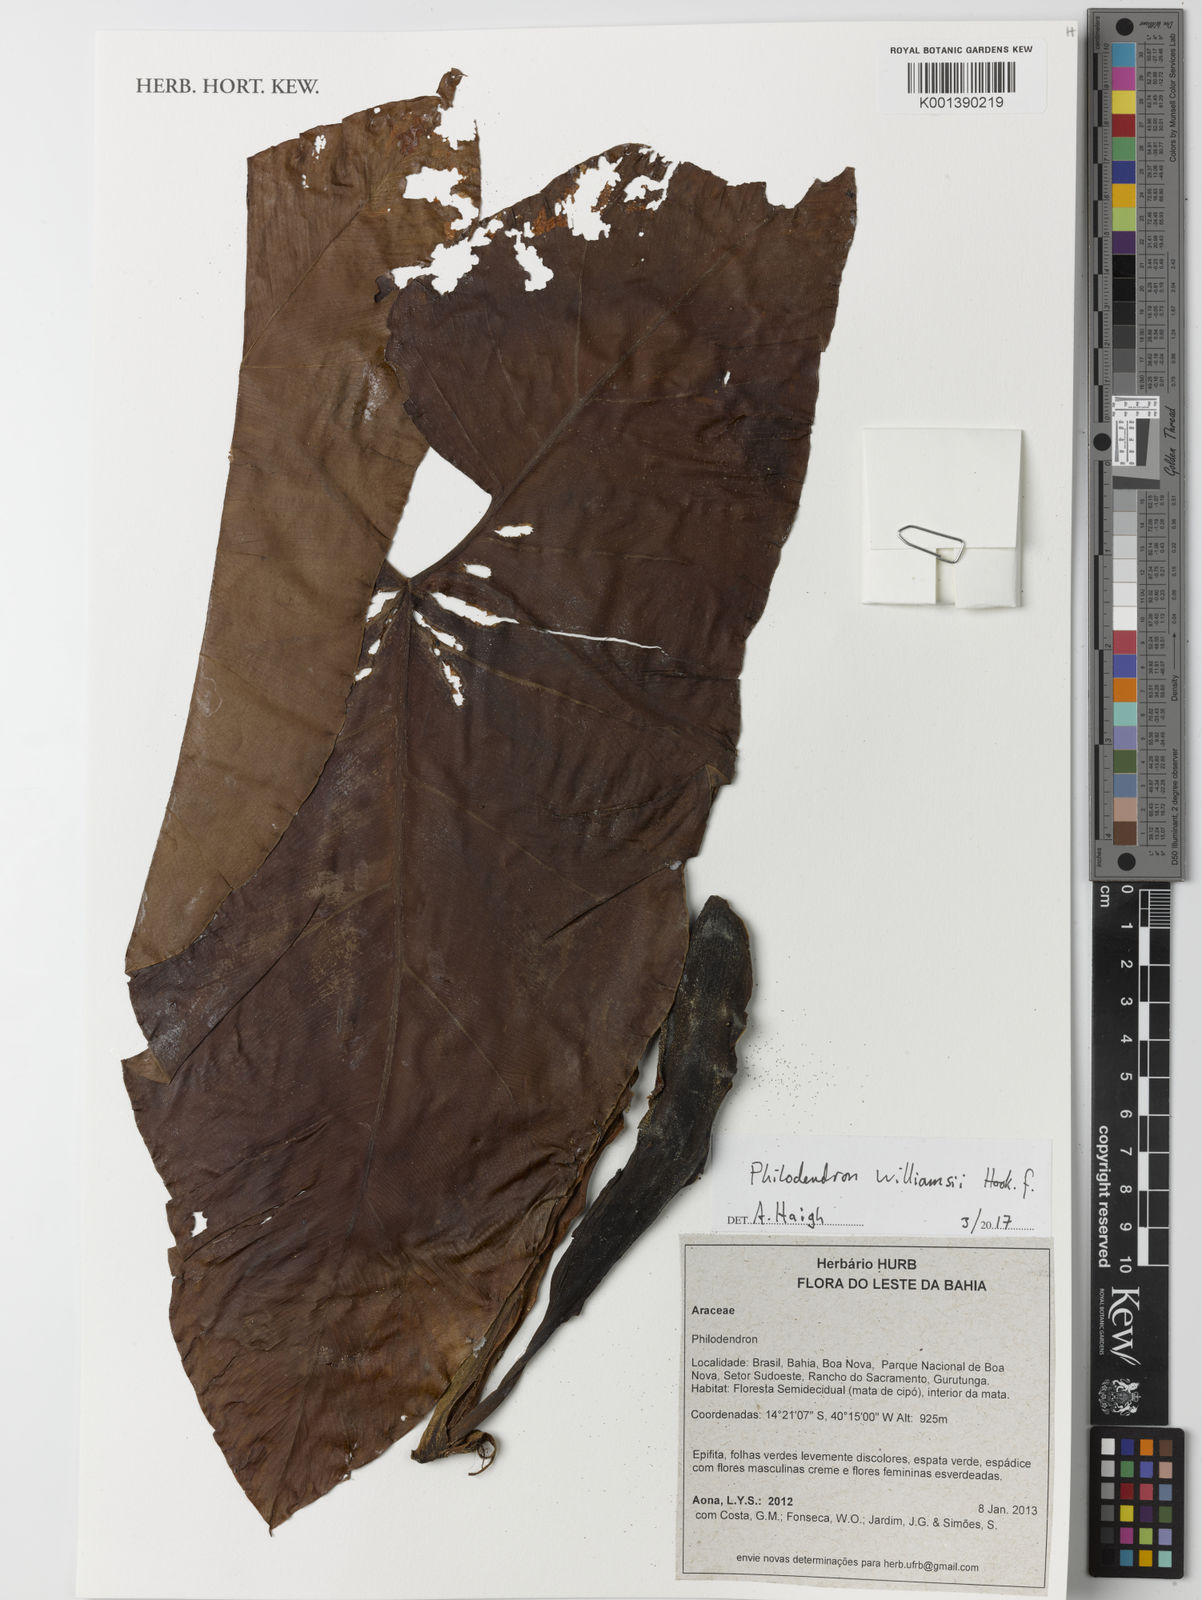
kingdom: Plantae
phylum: Tracheophyta
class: Liliopsida
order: Alismatales
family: Araceae
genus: Thaumatophyllum
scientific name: Thaumatophyllum williamsii
